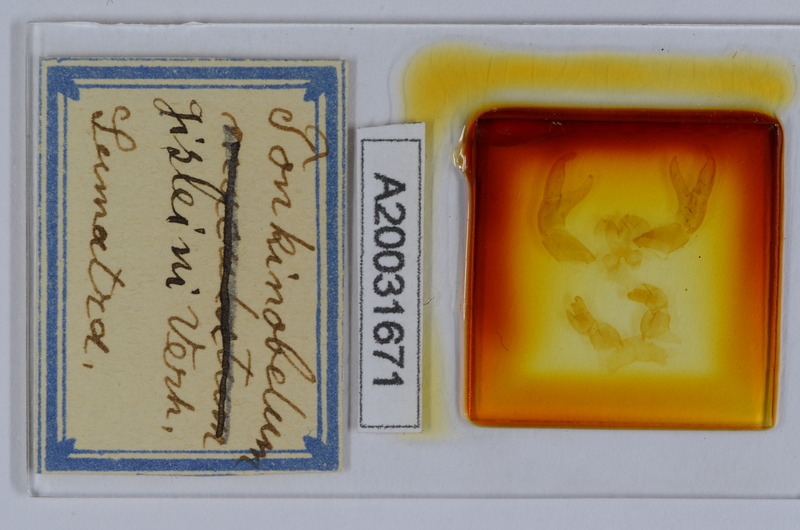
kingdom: Animalia
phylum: Arthropoda
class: Diplopoda
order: Sphaerotheriida
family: Zephroniidae
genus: Sphaeropoeus
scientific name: Sphaeropoeus gisleni
